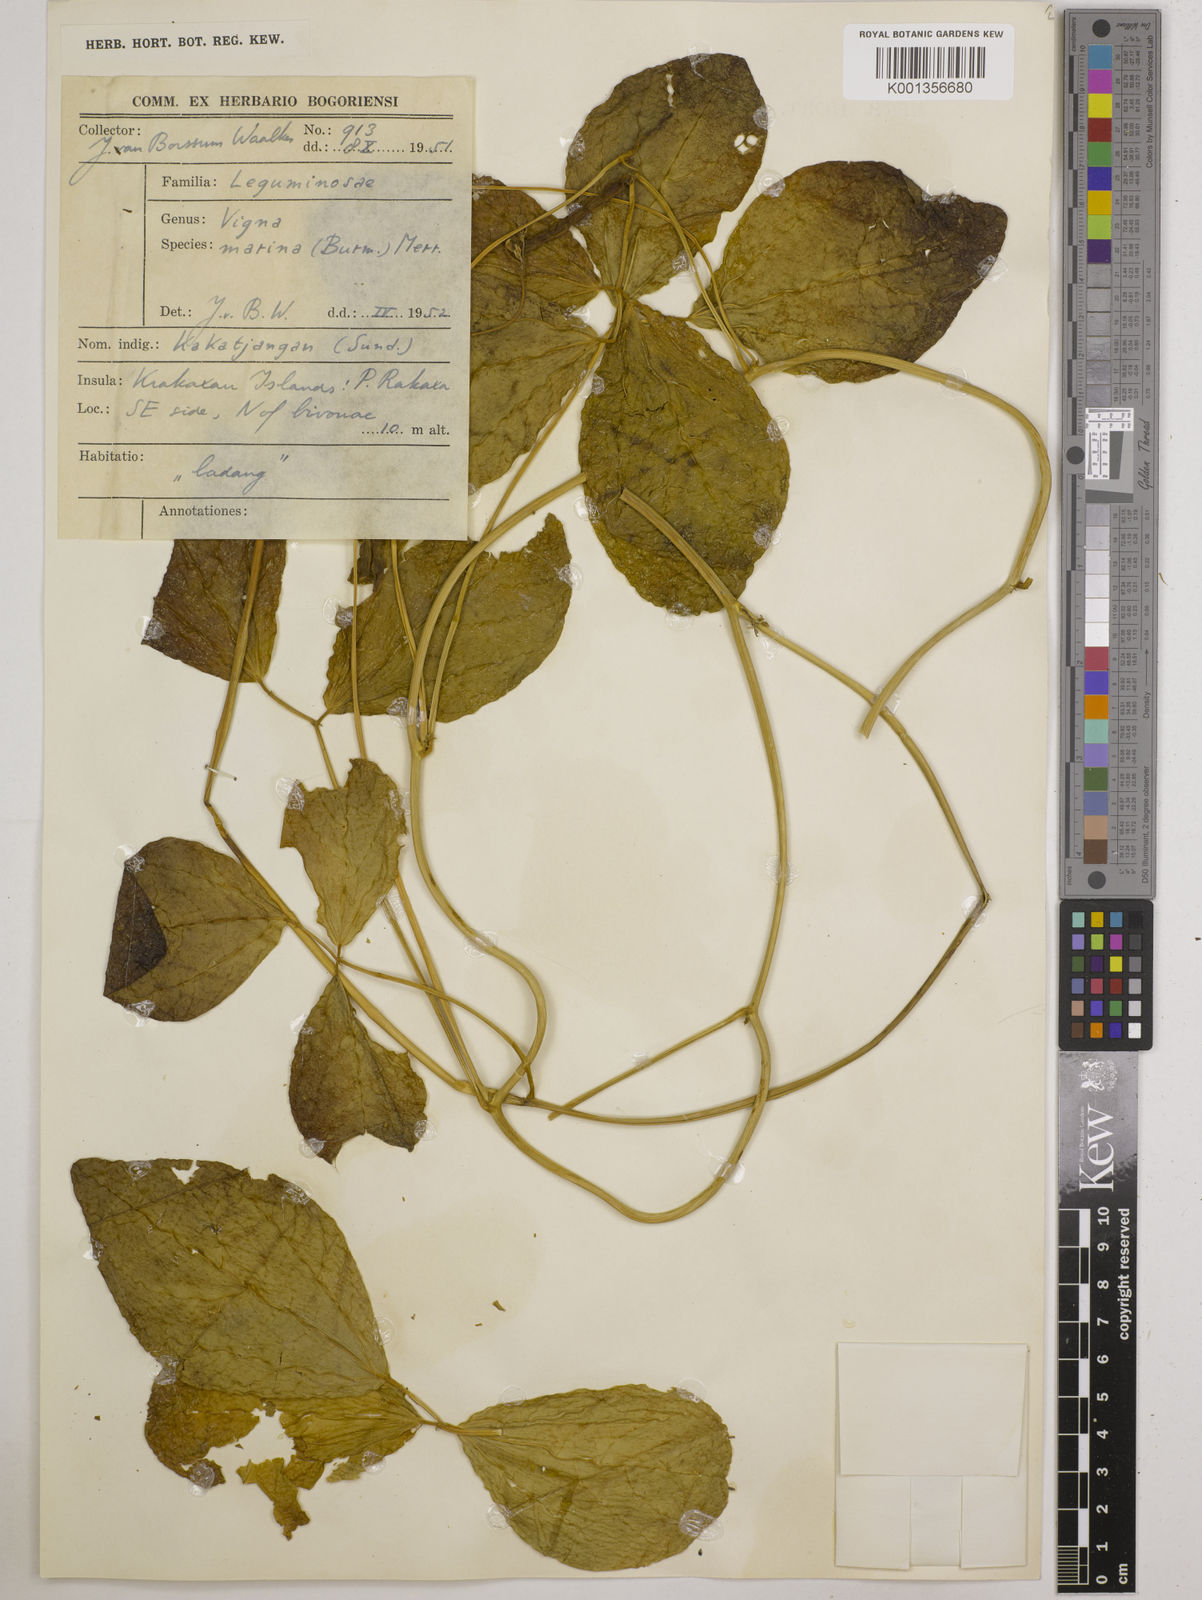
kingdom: Plantae
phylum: Tracheophyta
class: Magnoliopsida
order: Fabales
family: Fabaceae
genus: Vigna
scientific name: Vigna marina
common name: Dune-bean
